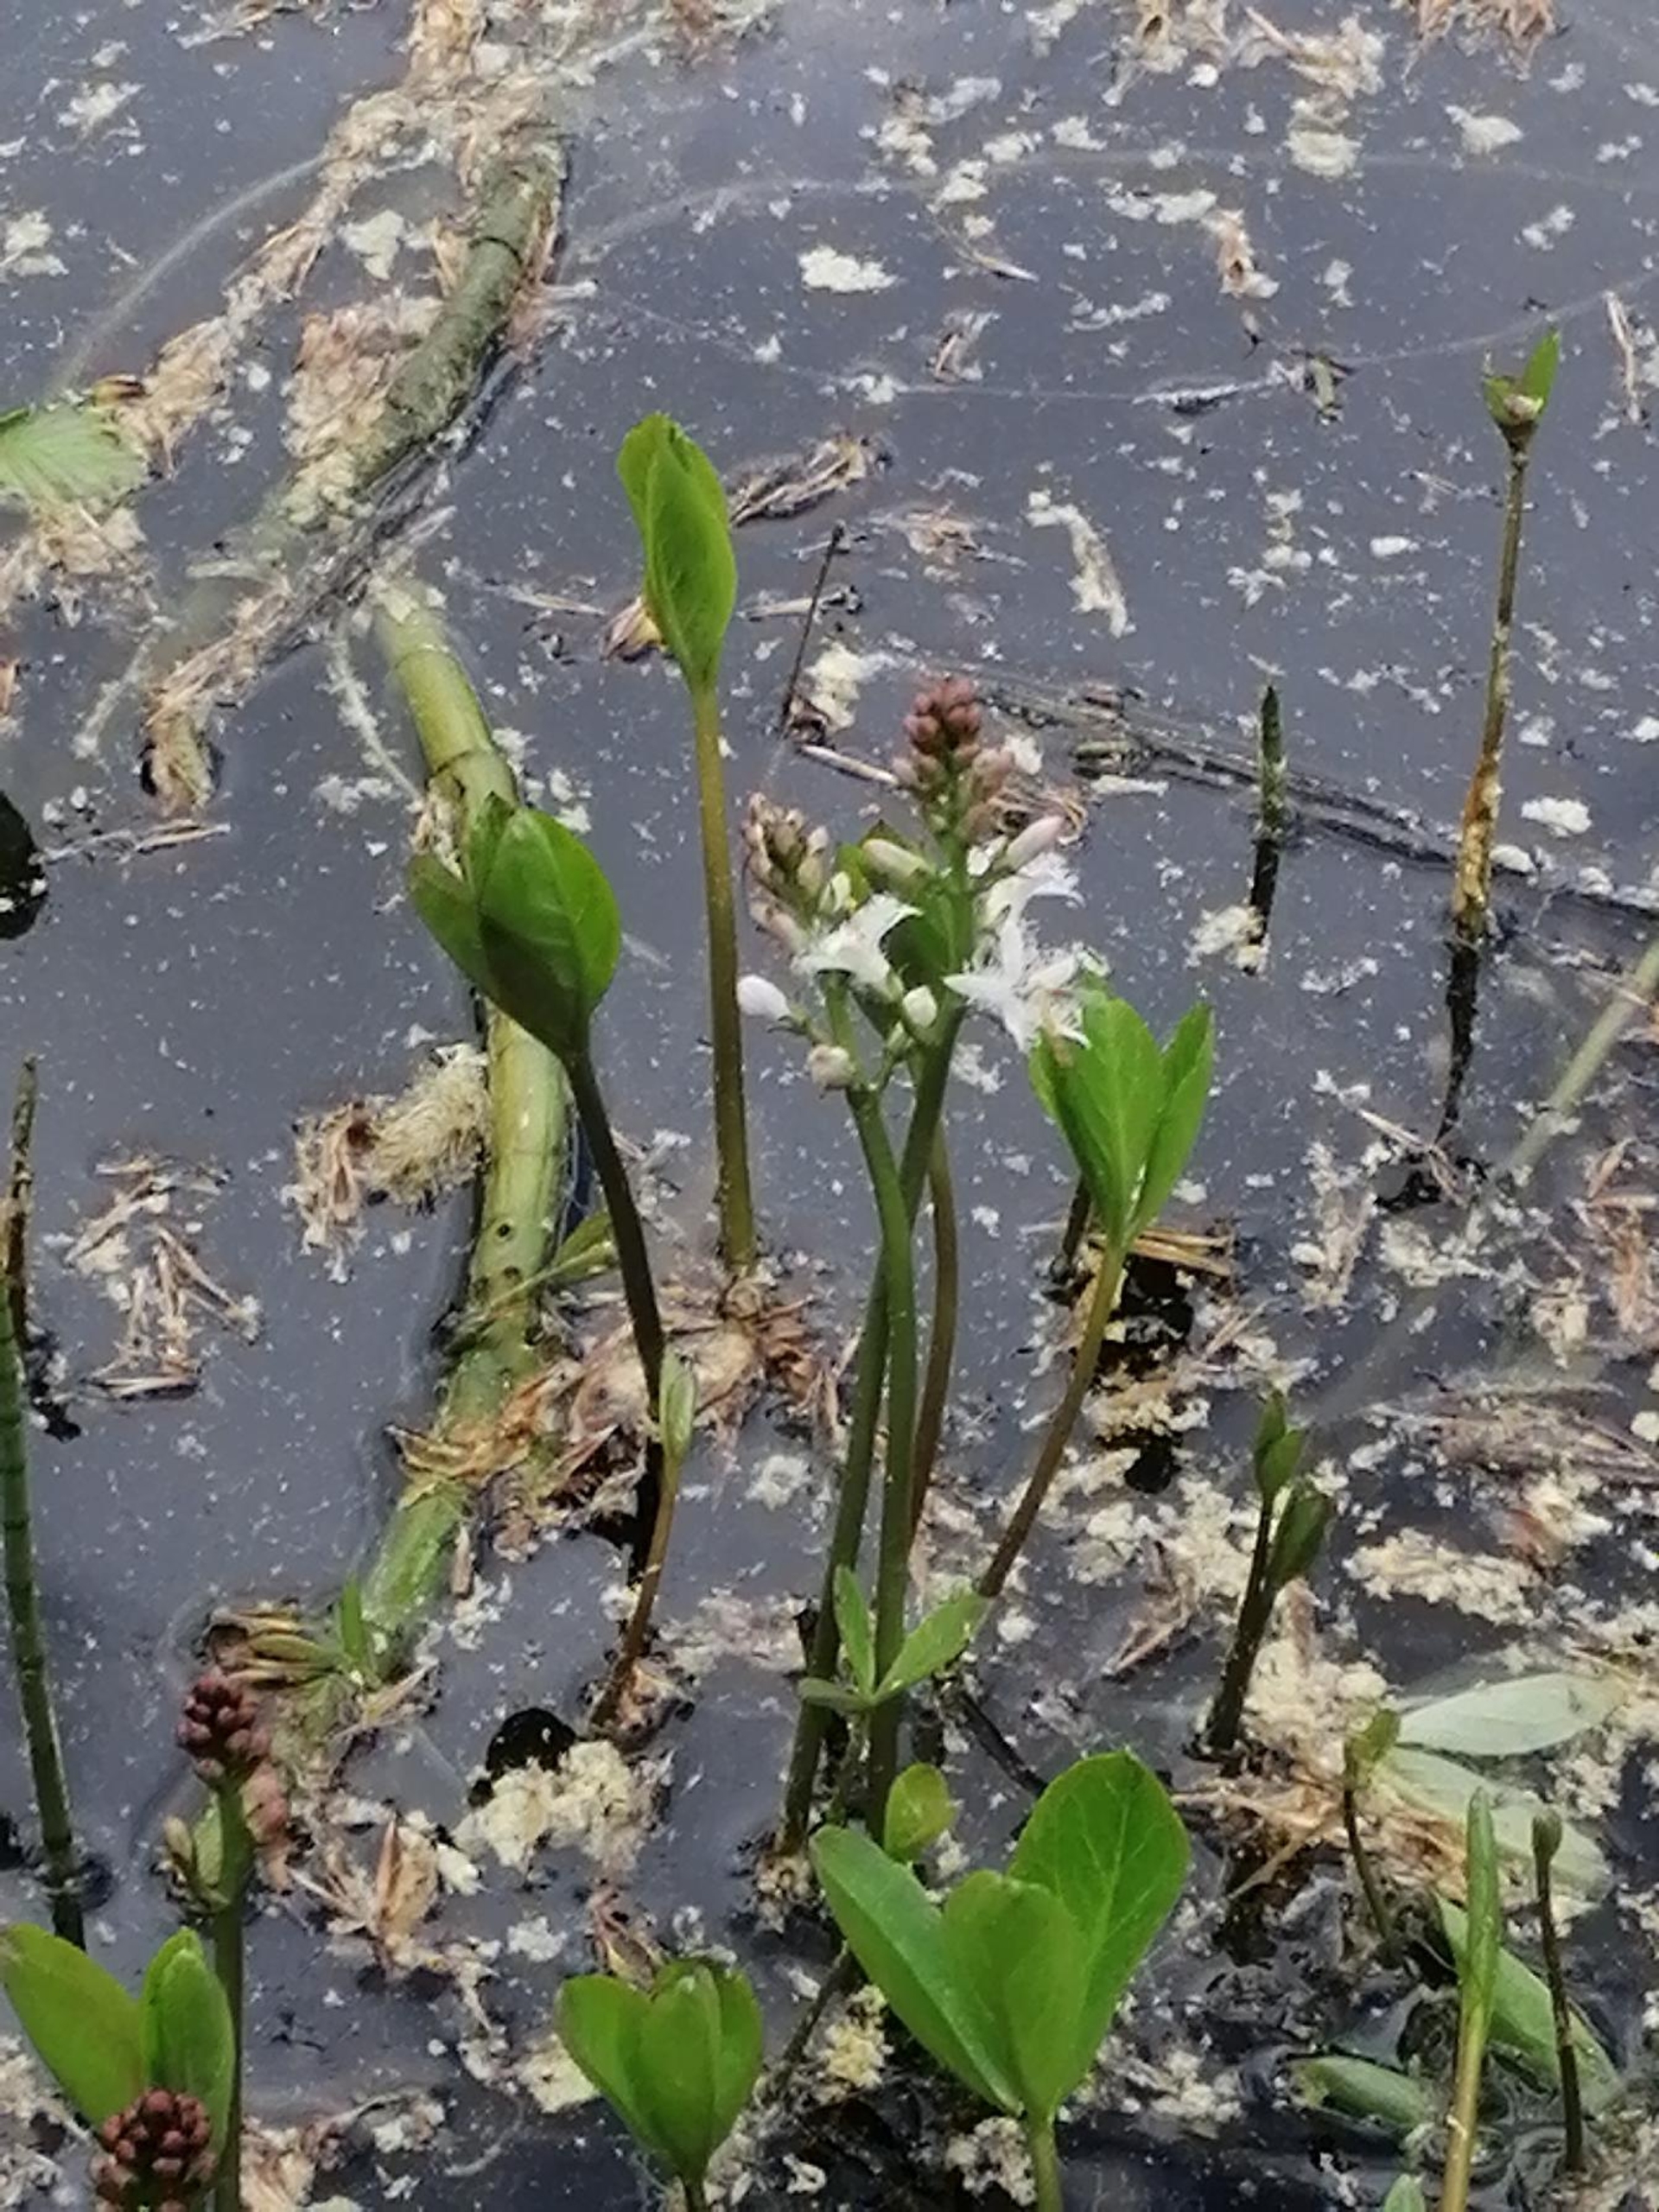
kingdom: Plantae
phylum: Tracheophyta
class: Magnoliopsida
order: Asterales
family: Menyanthaceae
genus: Menyanthes
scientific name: Menyanthes trifoliata
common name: Bukkeblad
